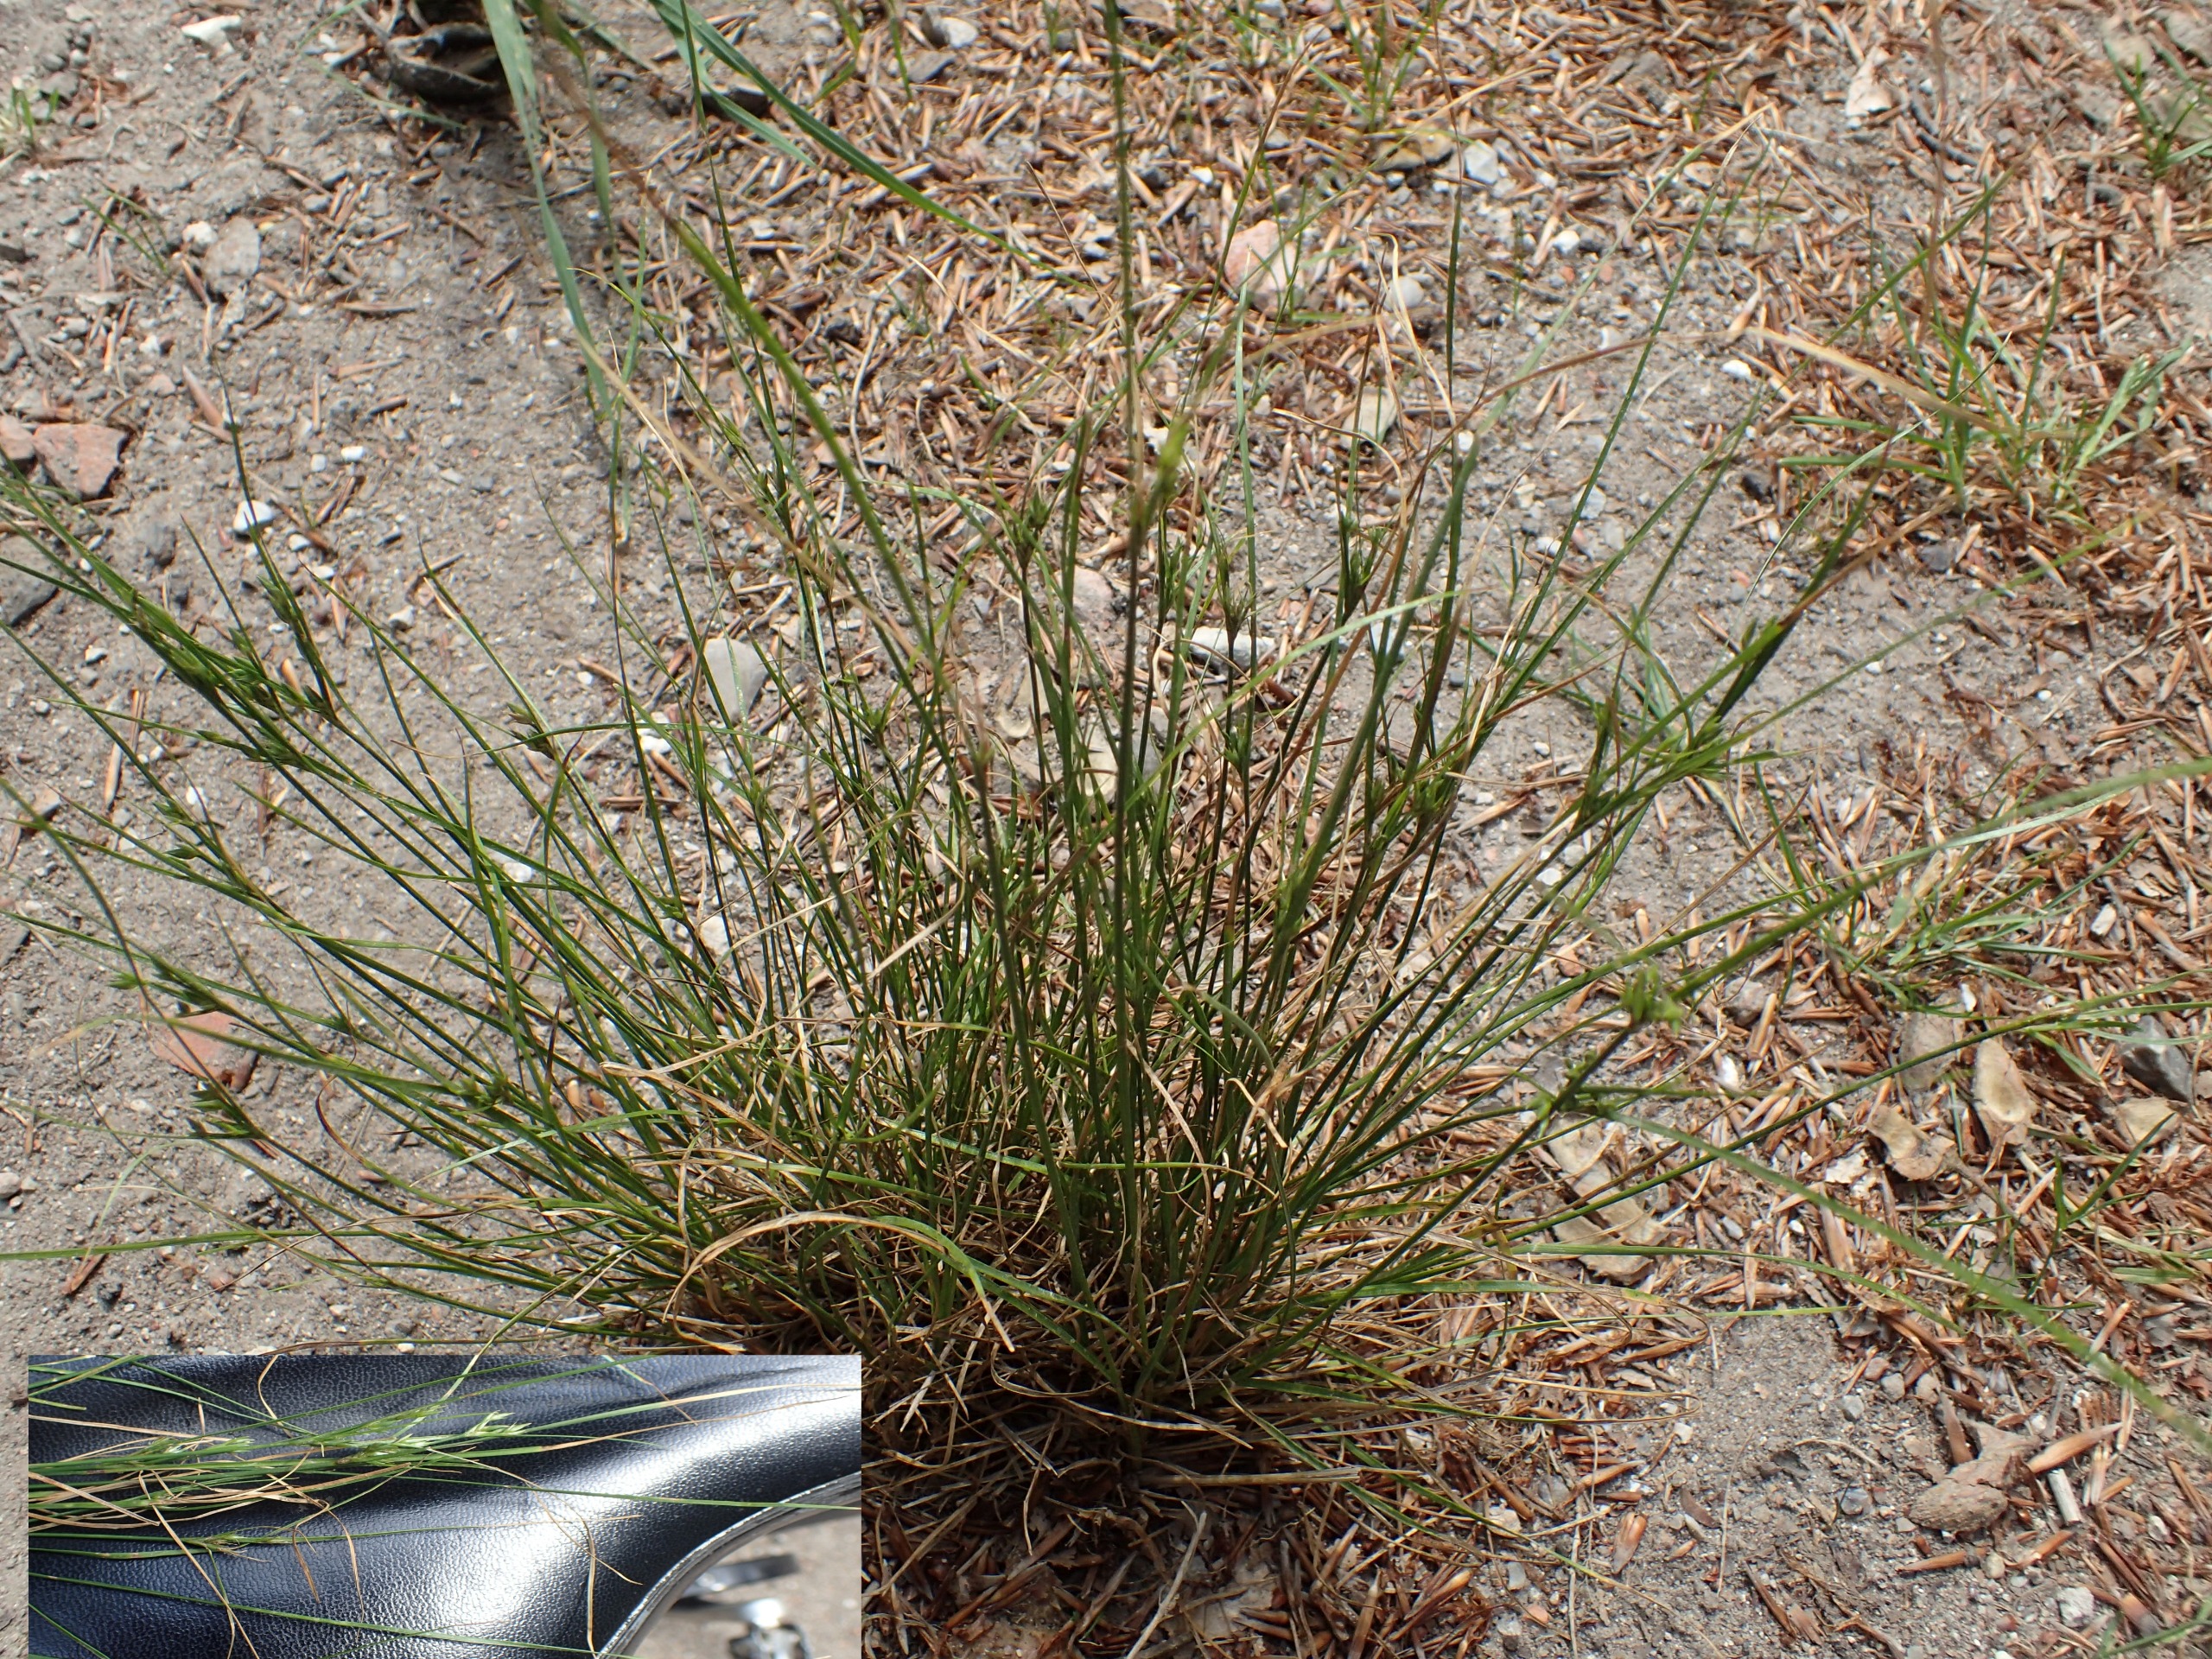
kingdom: Plantae
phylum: Tracheophyta
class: Liliopsida
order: Poales
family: Juncaceae
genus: Juncus
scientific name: Juncus tenuis
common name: Tue-siv
